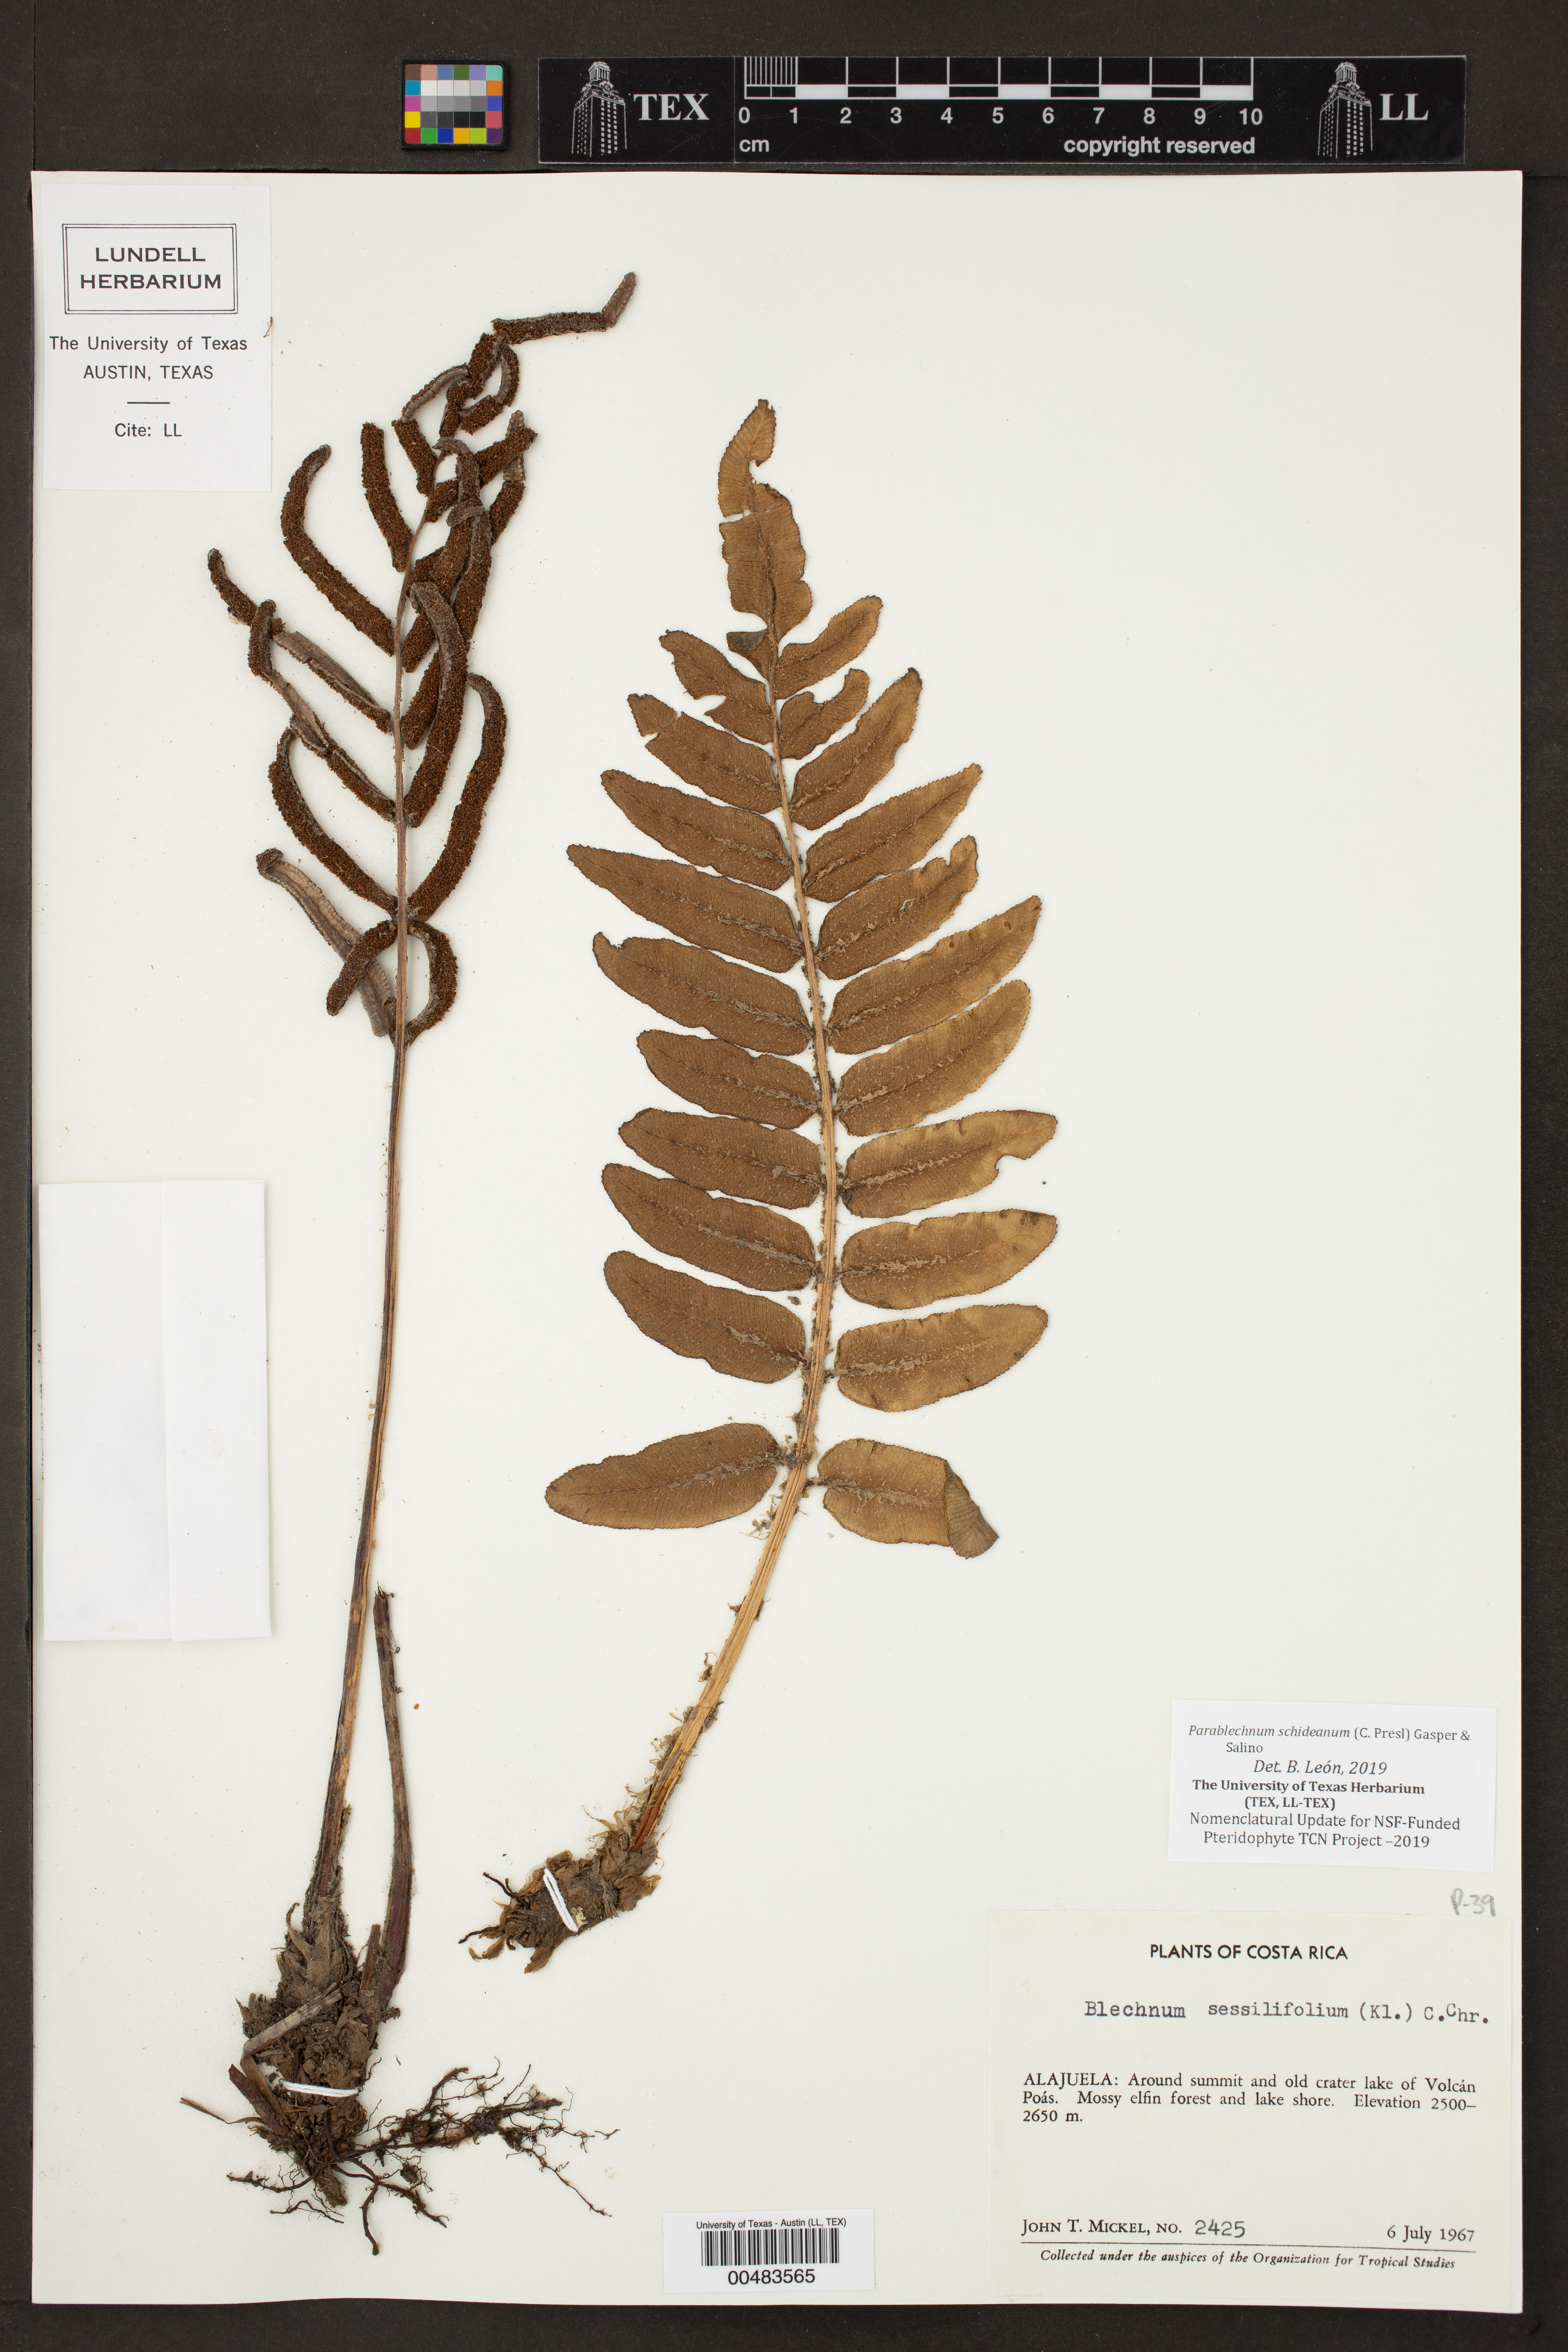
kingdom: Plantae
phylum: Tracheophyta
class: Polypodiopsida
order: Polypodiales
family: Blechnaceae
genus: Parablechnum
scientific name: Parablechnum schiedeanum
